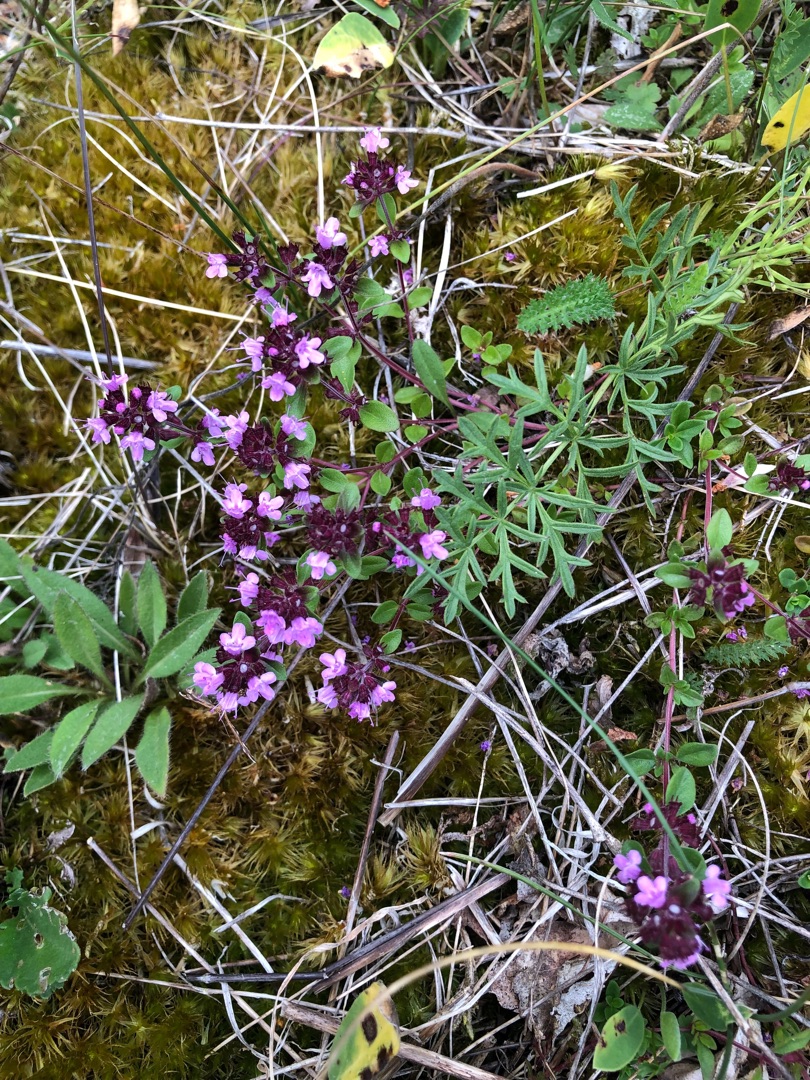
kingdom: Plantae
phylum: Tracheophyta
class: Magnoliopsida
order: Lamiales
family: Lamiaceae
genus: Thymus
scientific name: Thymus pulegioides
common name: Bredbladet timian
